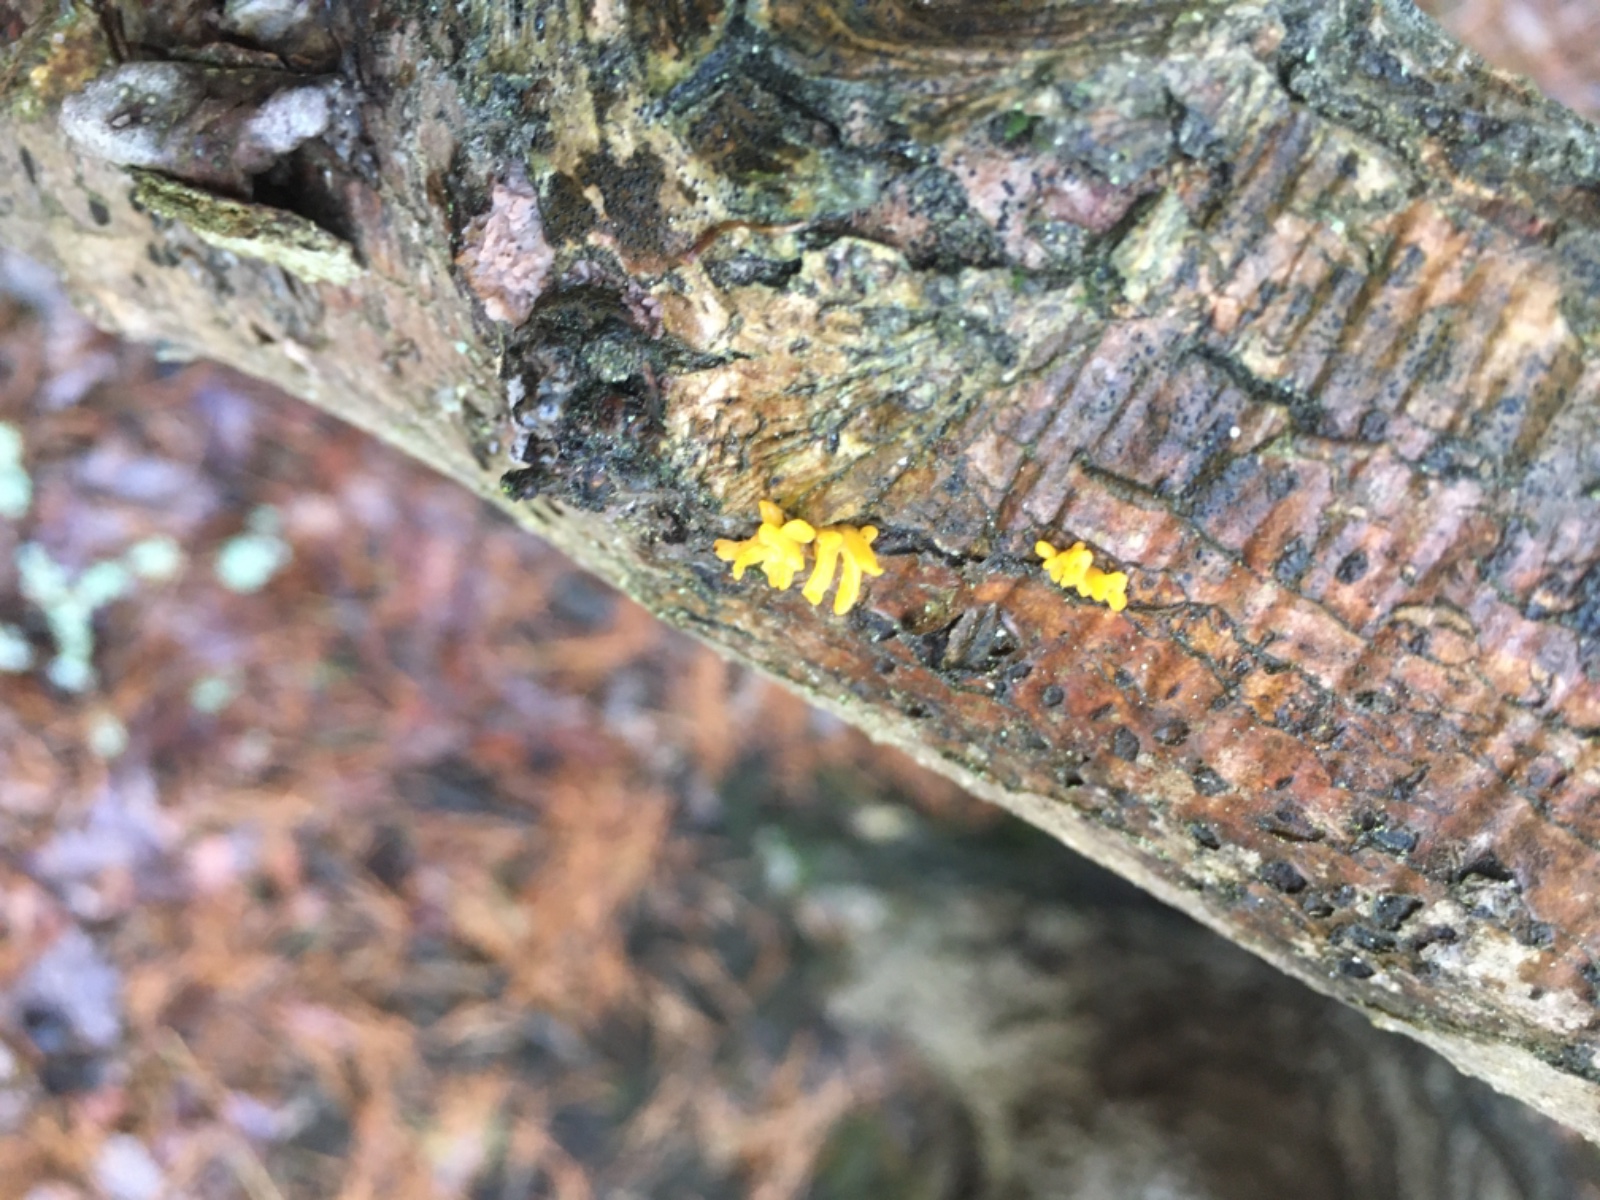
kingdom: Fungi
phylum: Basidiomycota
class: Dacrymycetes
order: Dacrymycetales
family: Dacrymycetaceae
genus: Calocera
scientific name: Calocera cornea
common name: liden guldgaffel
